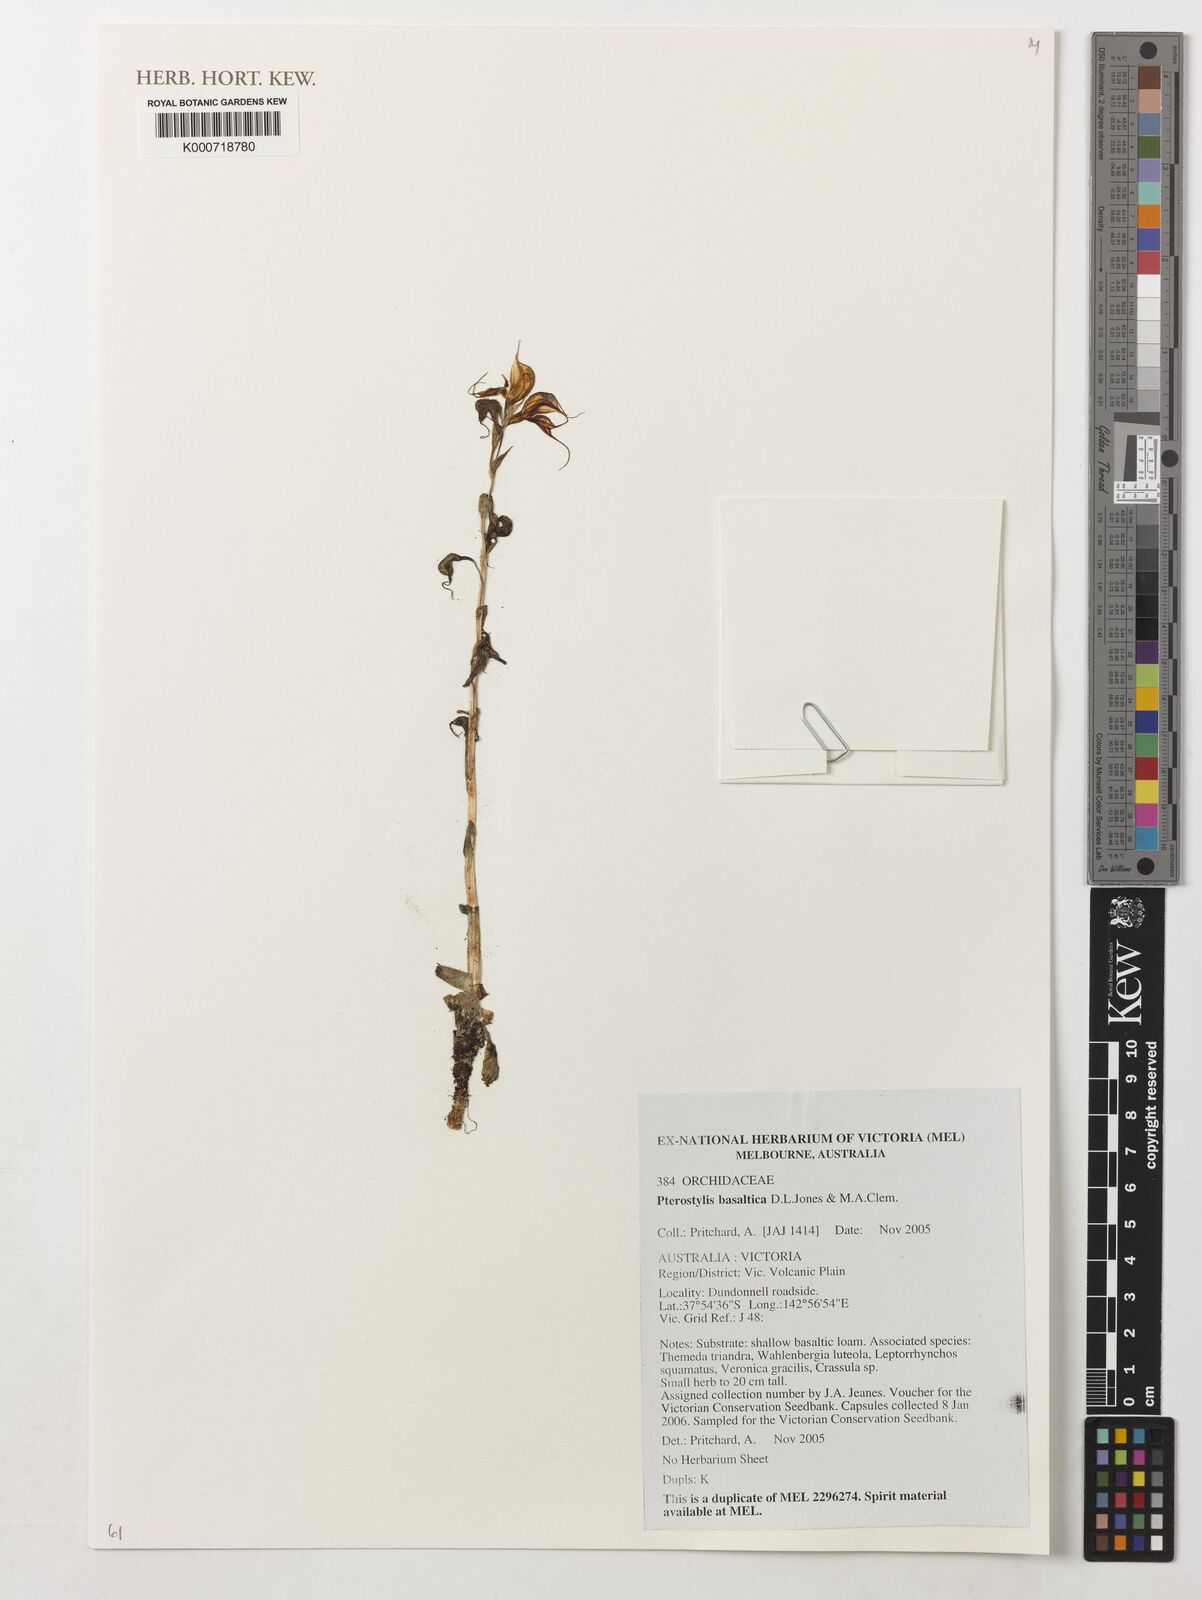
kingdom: Plantae
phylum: Tracheophyta
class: Liliopsida
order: Asparagales
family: Orchidaceae
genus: Pterostylis
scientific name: Pterostylis basaltica
